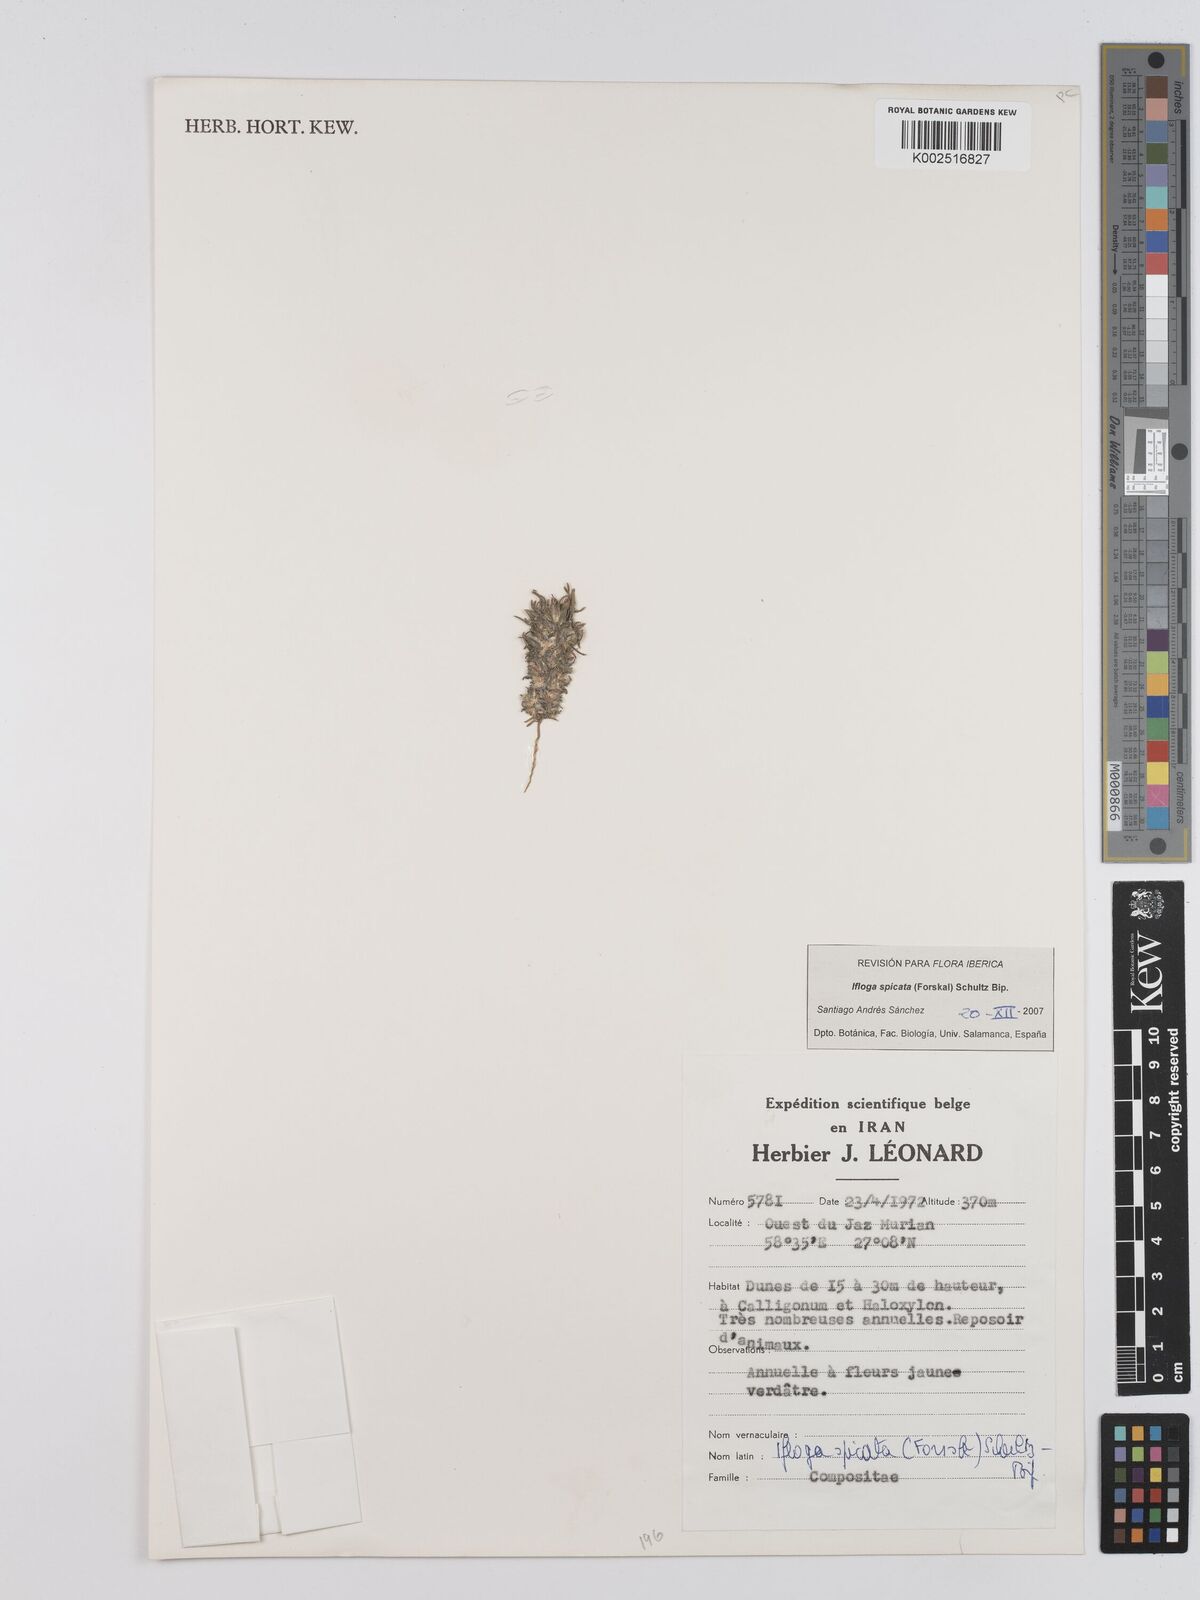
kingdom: Plantae
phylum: Tracheophyta
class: Magnoliopsida
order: Asterales
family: Asteraceae
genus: Filago
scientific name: Filago
